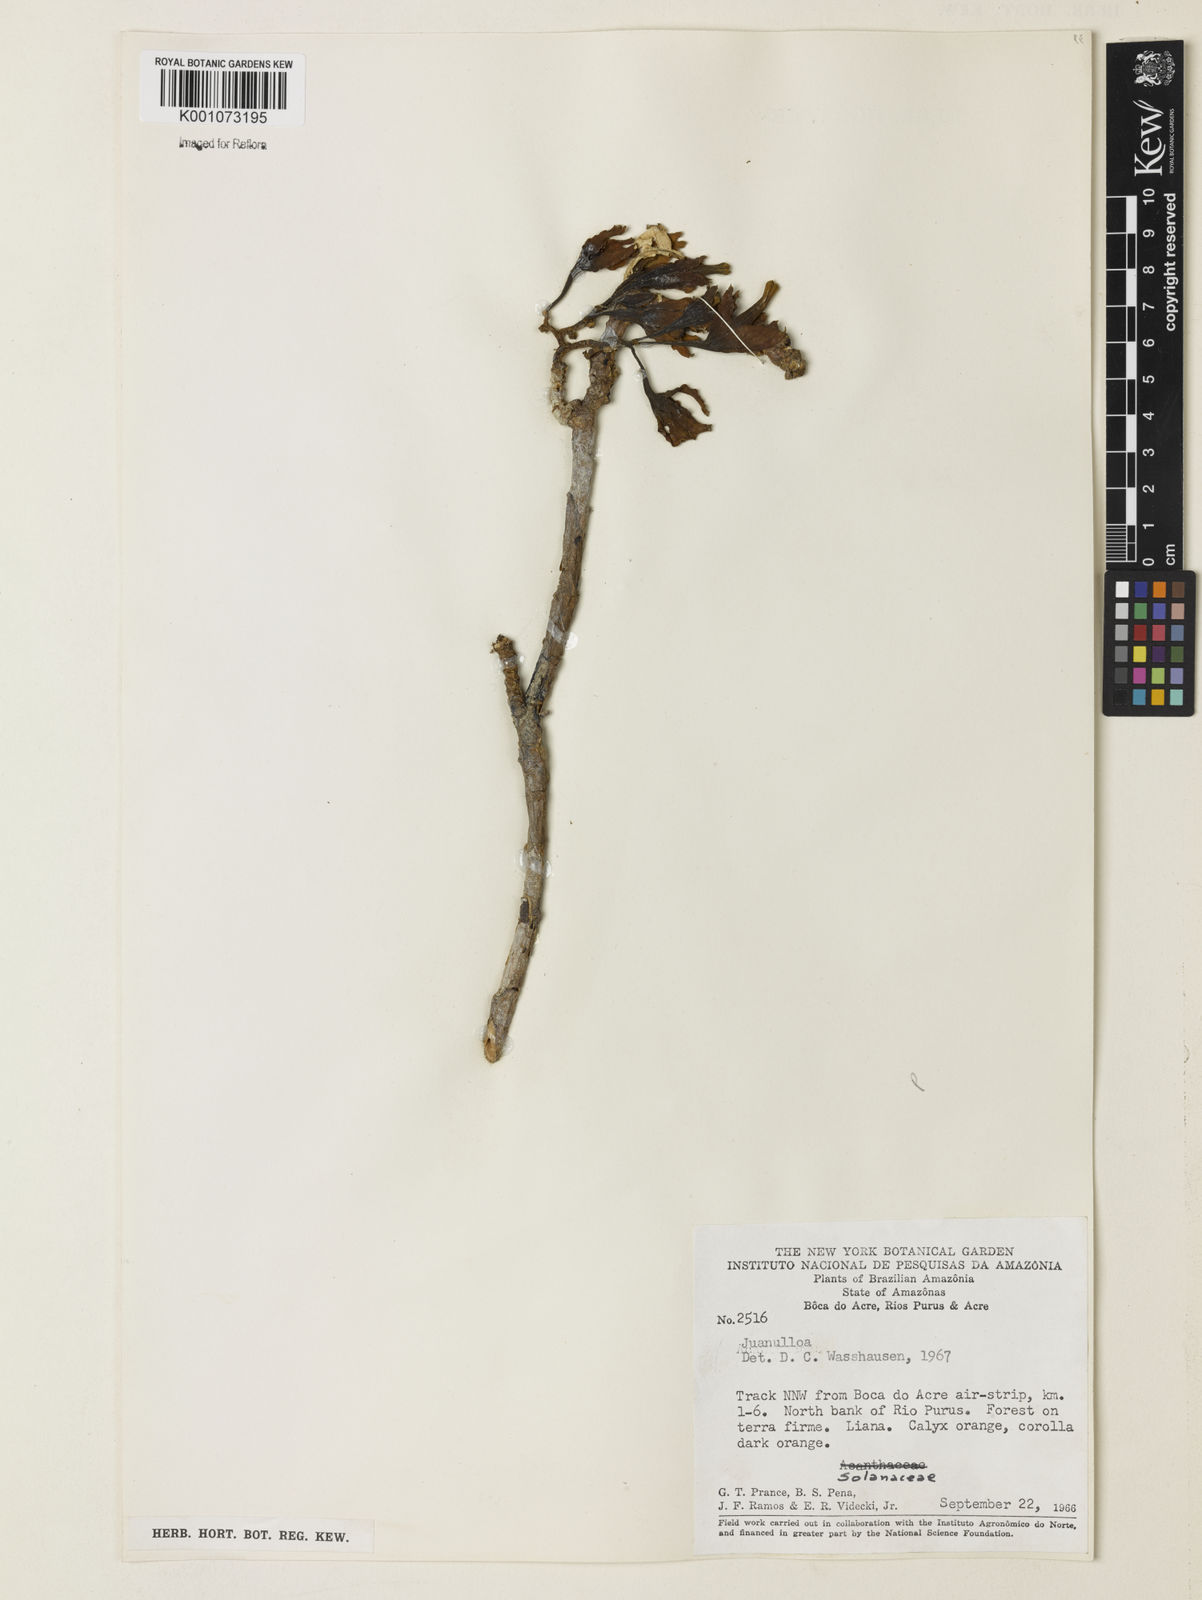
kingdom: Plantae
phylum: Tracheophyta
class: Magnoliopsida
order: Solanales
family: Solanaceae
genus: Juanulloa
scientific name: Juanulloa parasitica
